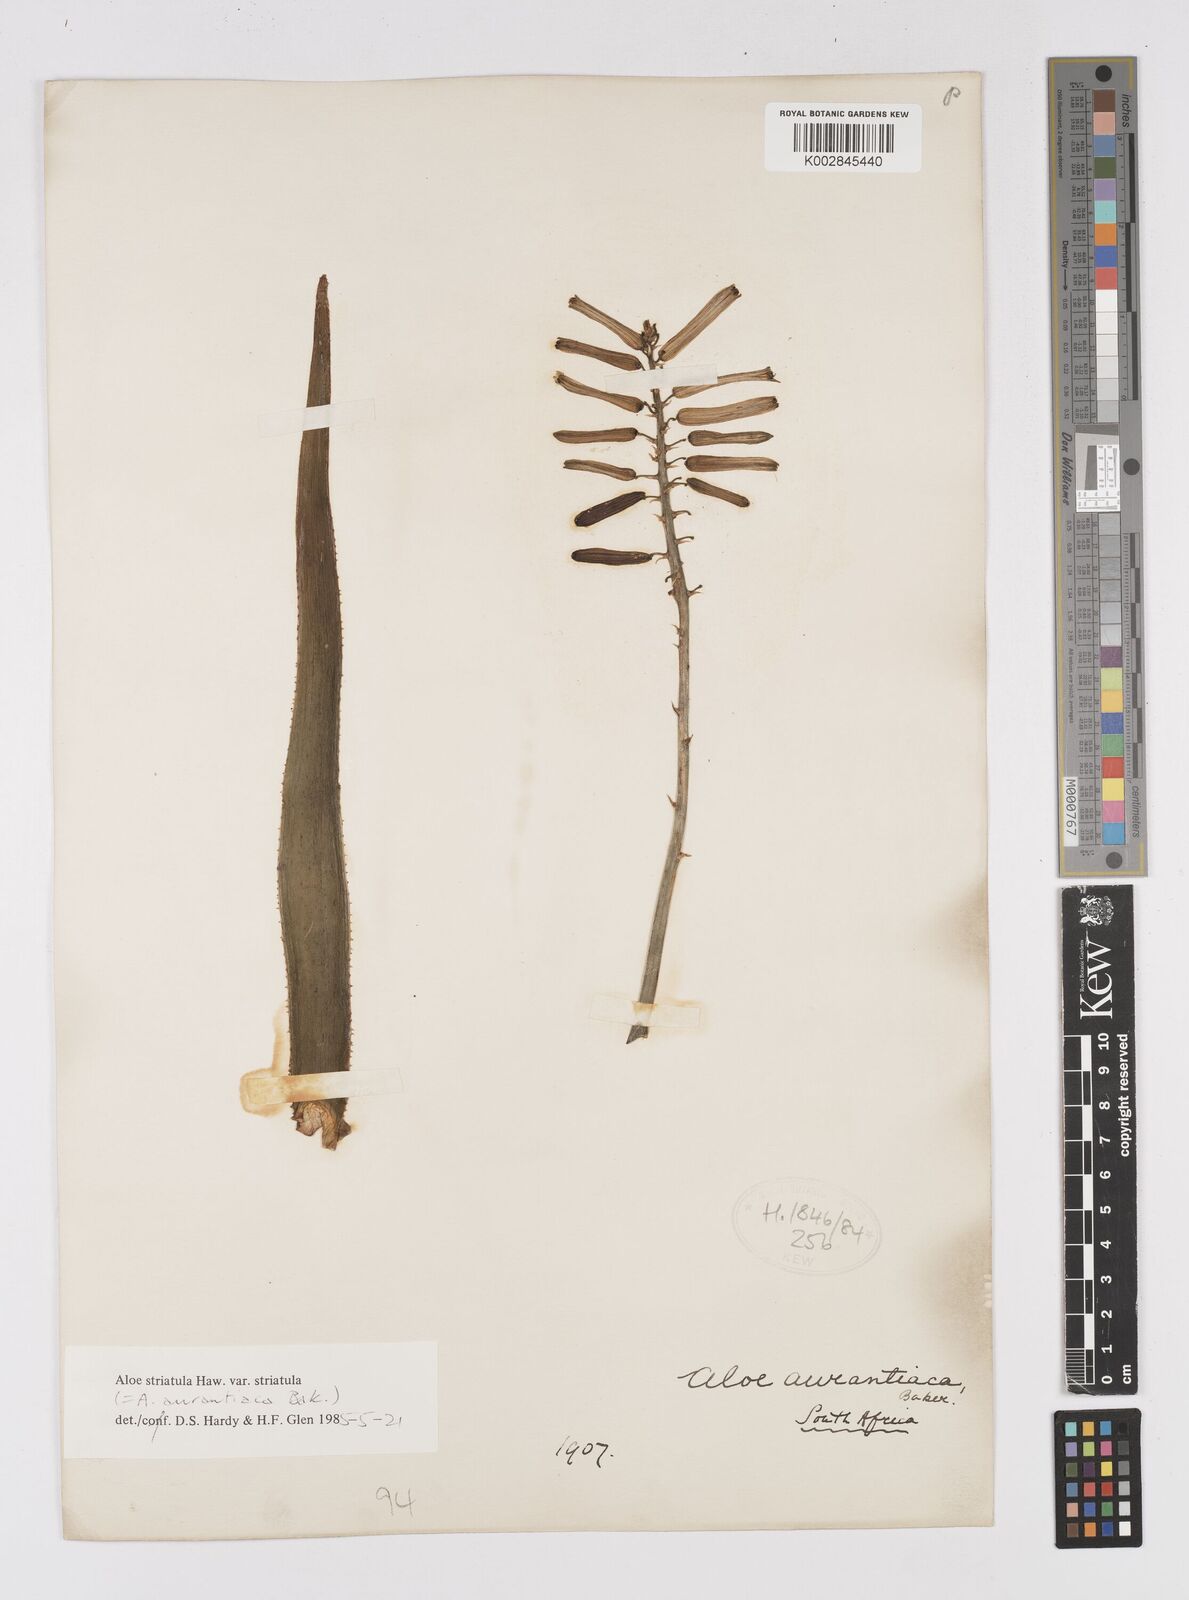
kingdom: Plantae
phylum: Tracheophyta
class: Liliopsida
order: Asparagales
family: Asphodelaceae
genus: Aloiampelos
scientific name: Aloiampelos striatula
